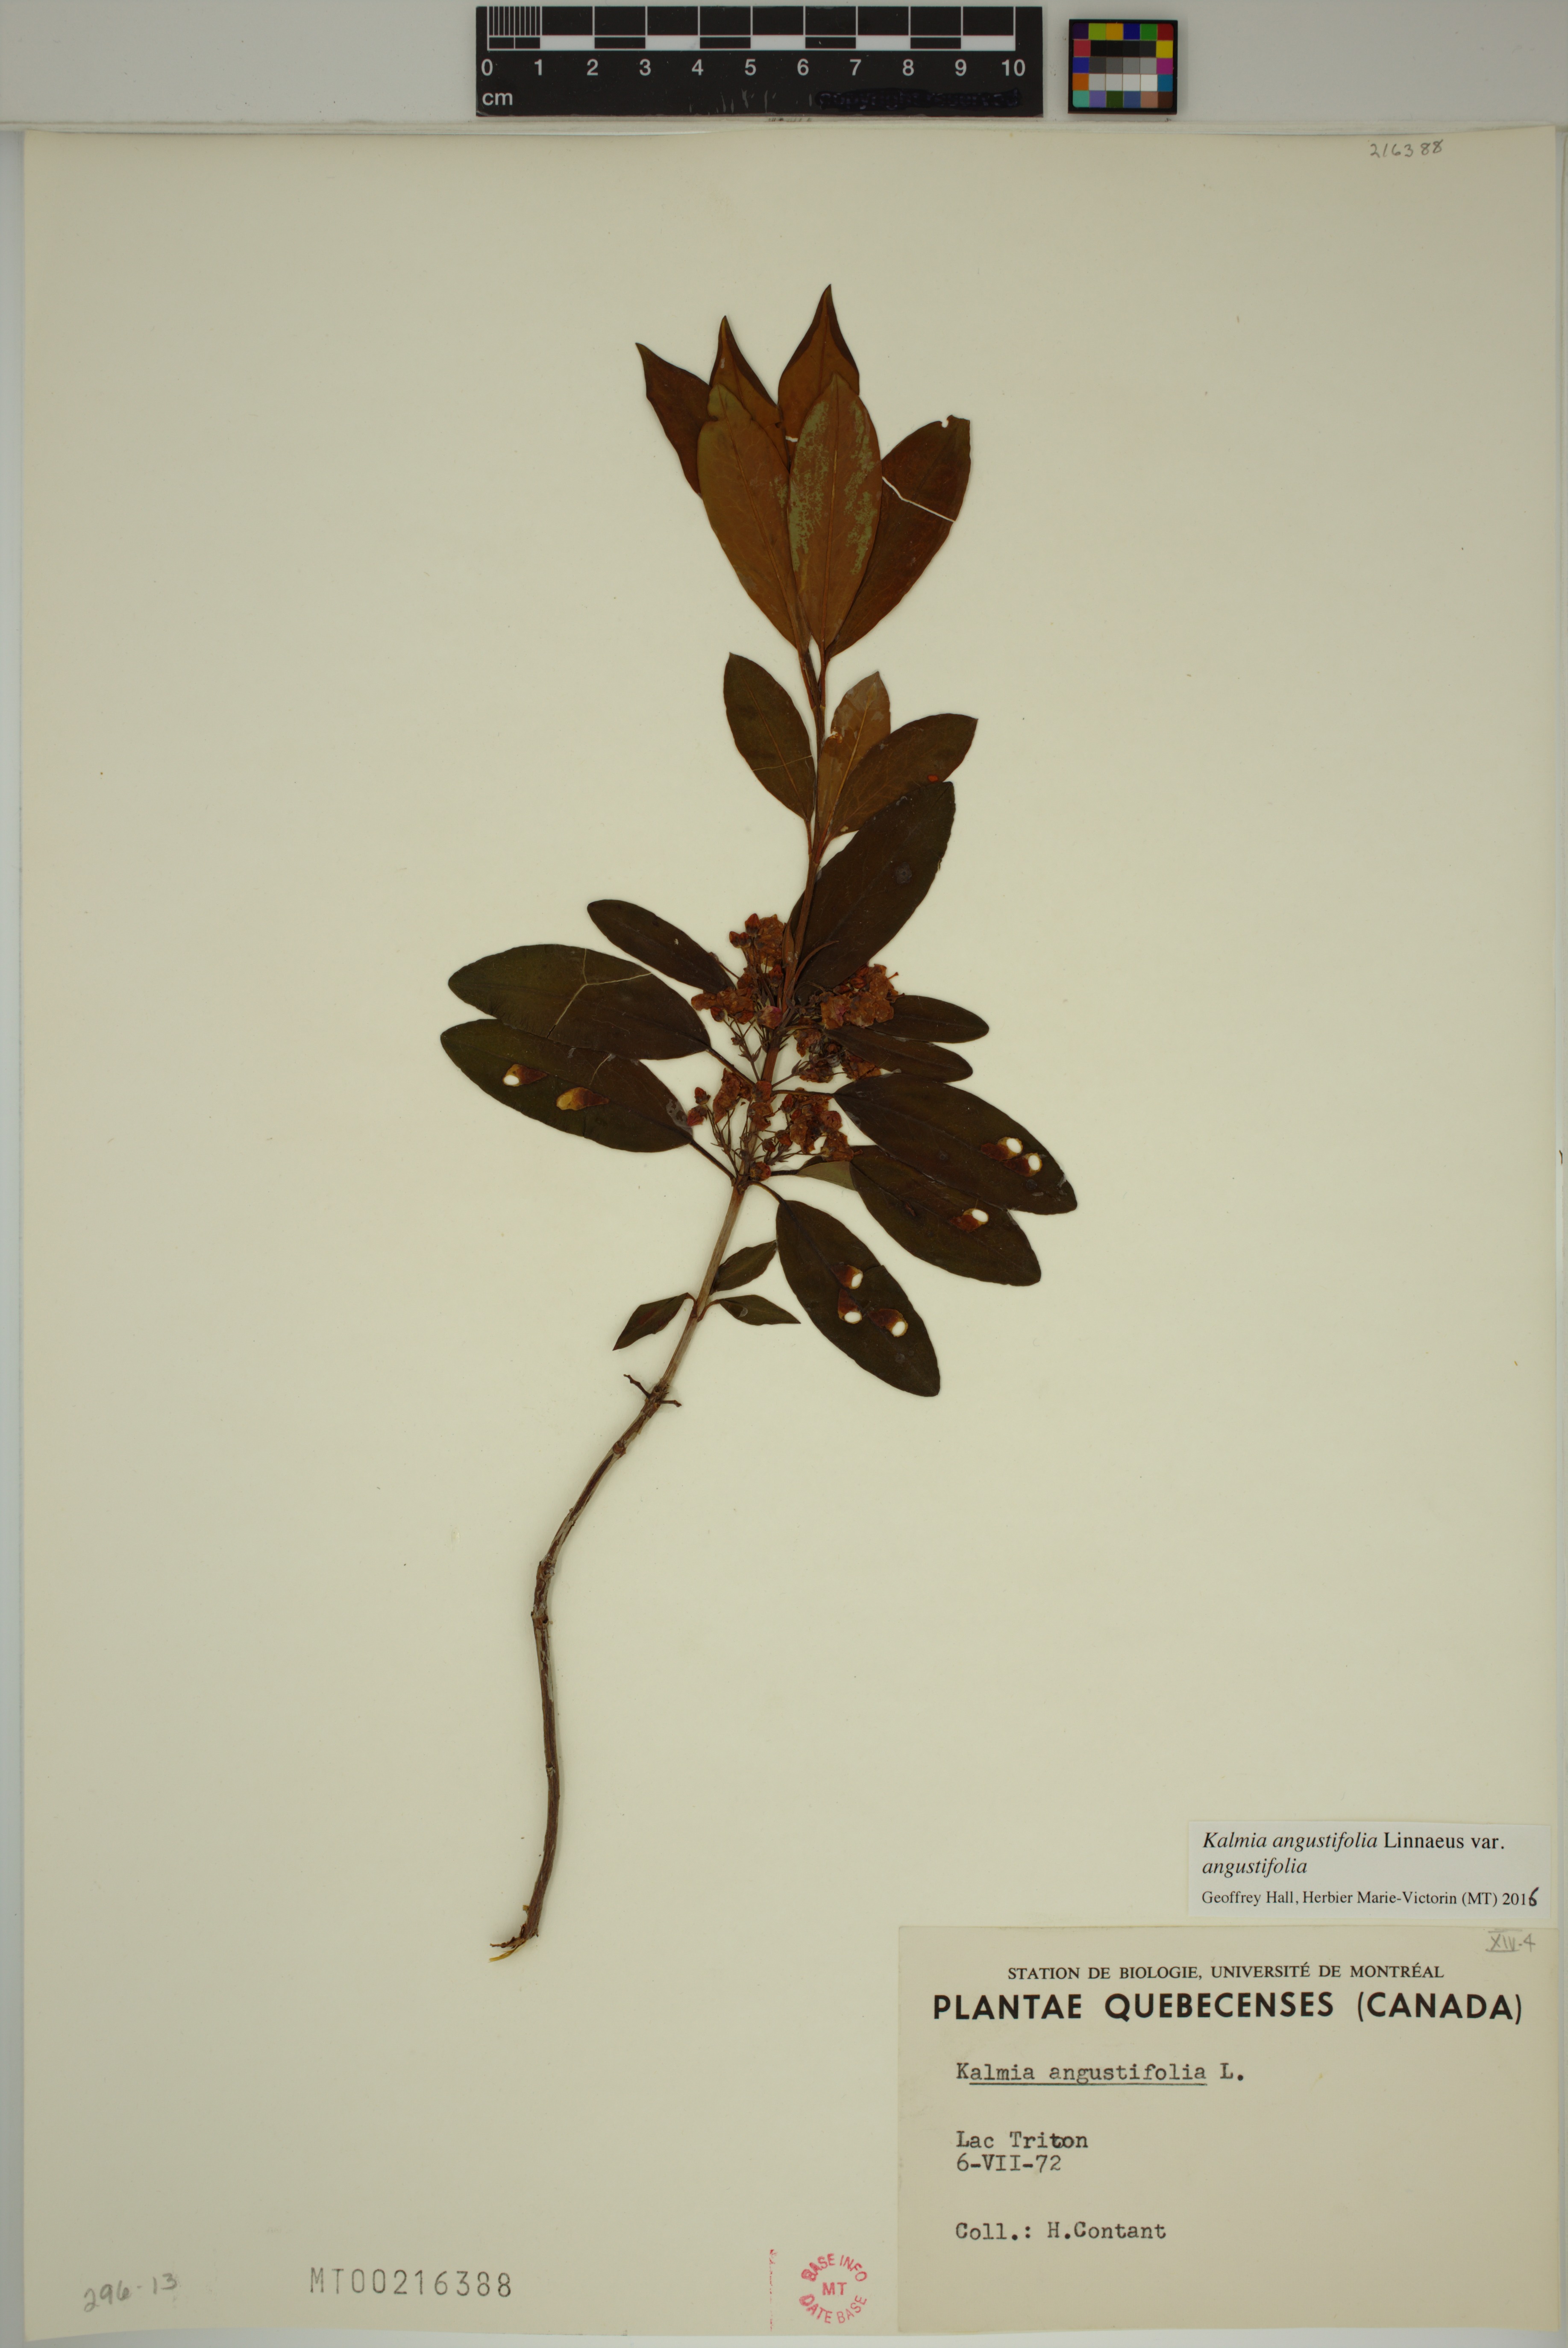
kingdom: Plantae
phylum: Tracheophyta
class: Magnoliopsida
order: Ericales
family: Ericaceae
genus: Kalmia
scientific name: Kalmia angustifolia
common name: Sheep-laurel
